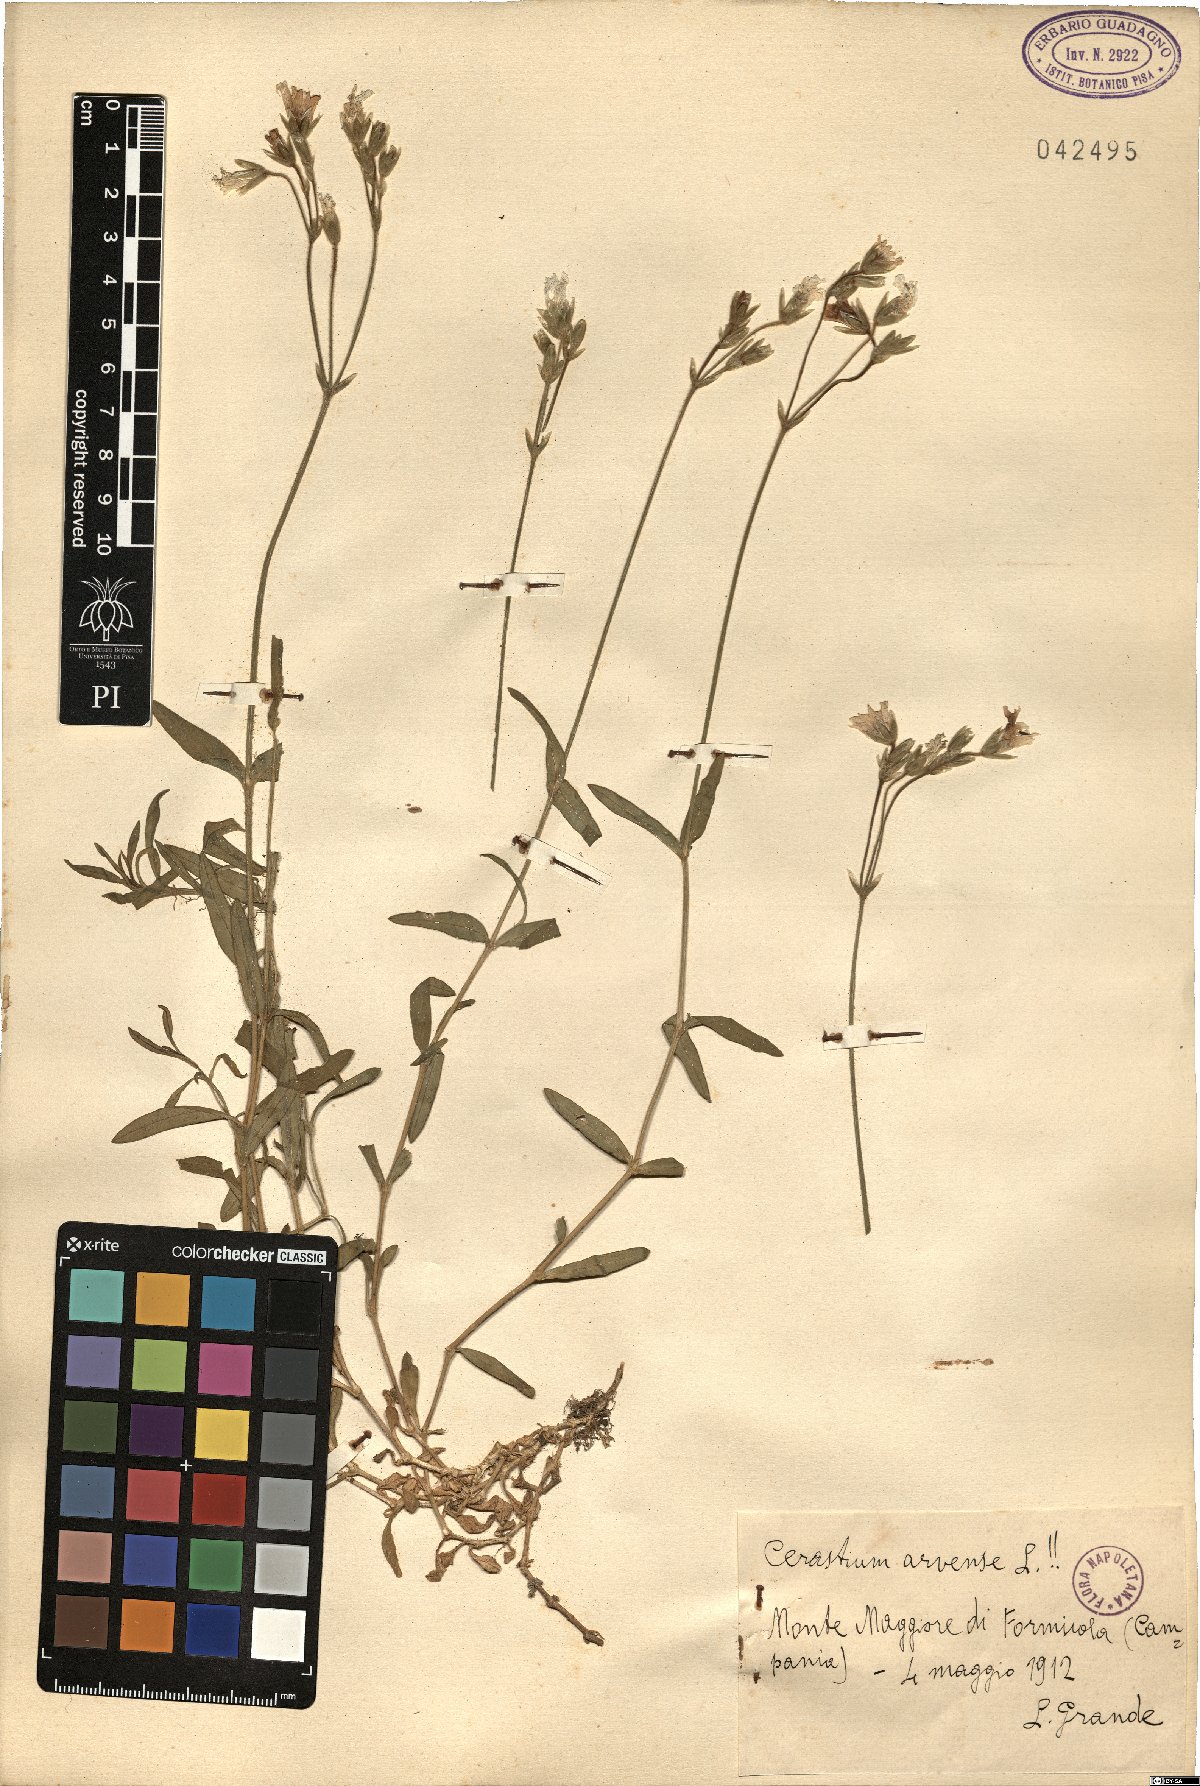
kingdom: Plantae
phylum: Tracheophyta
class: Magnoliopsida
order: Caryophyllales
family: Caryophyllaceae
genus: Cerastium
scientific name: Cerastium arvense
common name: Field mouse-ear
